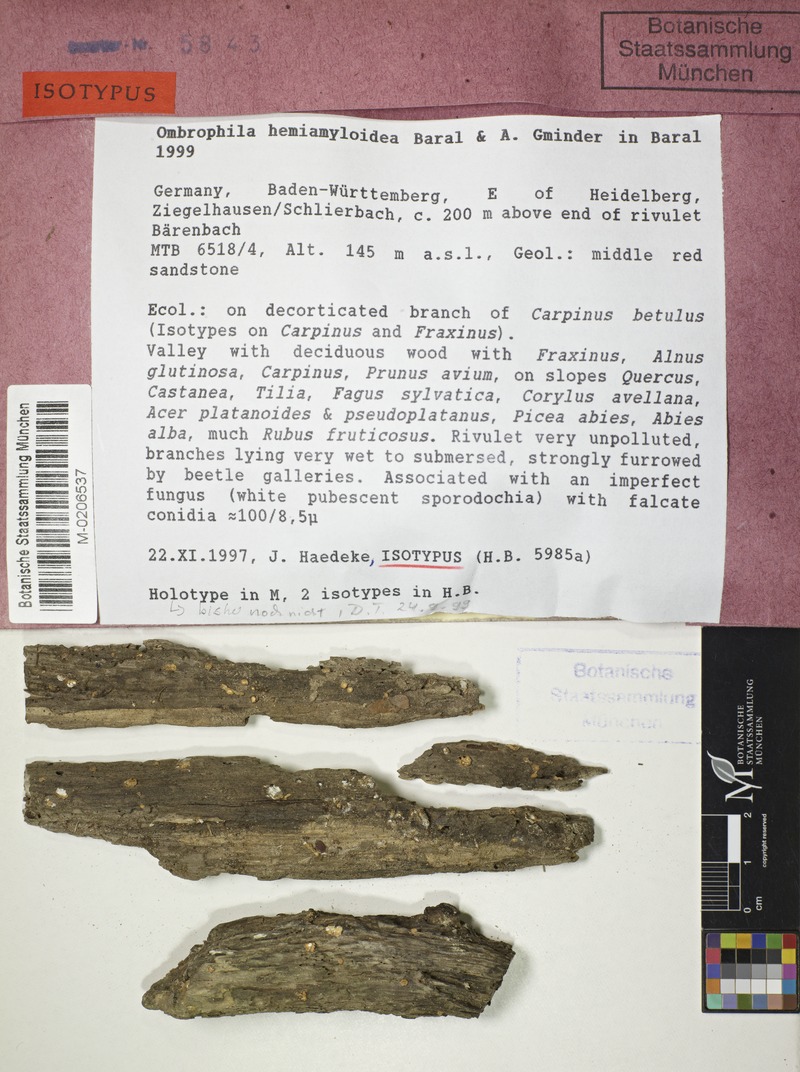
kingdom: Fungi
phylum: Ascomycota
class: Leotiomycetes
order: Helotiales
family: Gelatinodiscaceae
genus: Ombrophila
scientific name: Ombrophila hemiamyloidea
